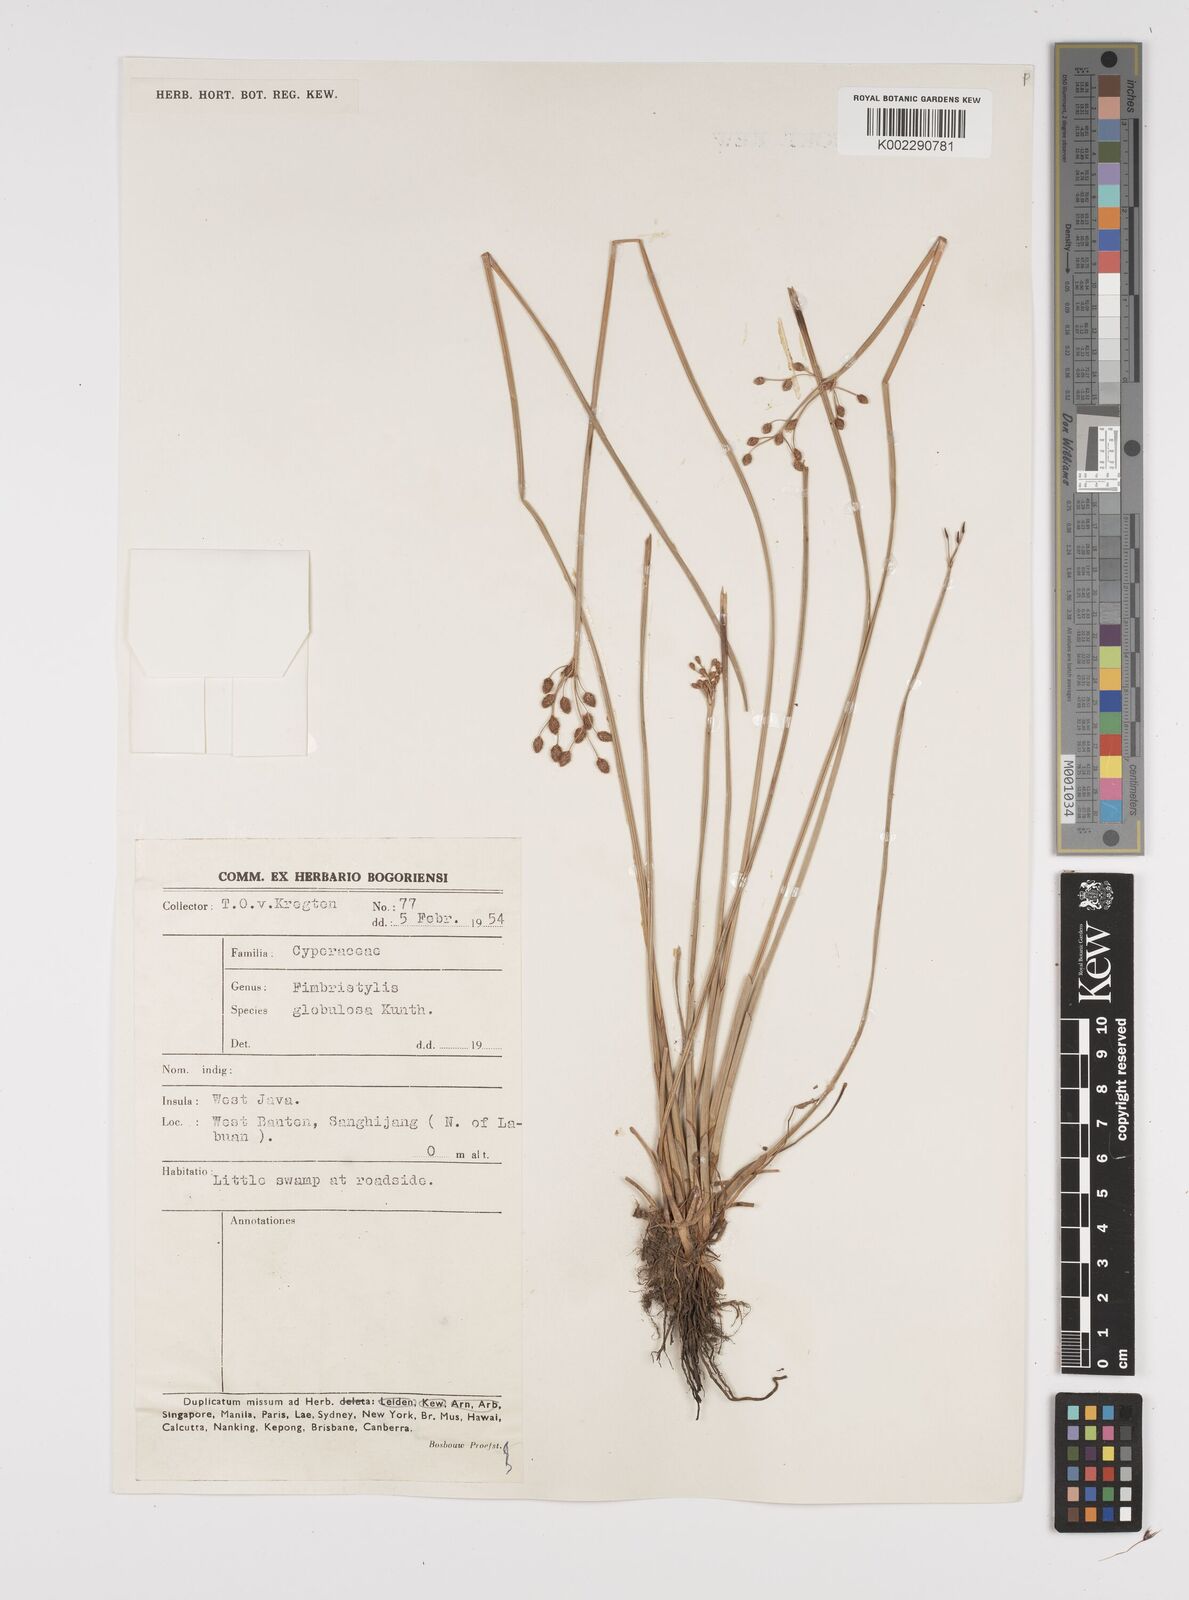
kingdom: Plantae
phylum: Tracheophyta
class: Liliopsida
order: Poales
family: Cyperaceae
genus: Fimbristylis
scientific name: Fimbristylis umbellaris
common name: Globular fimbristylis
